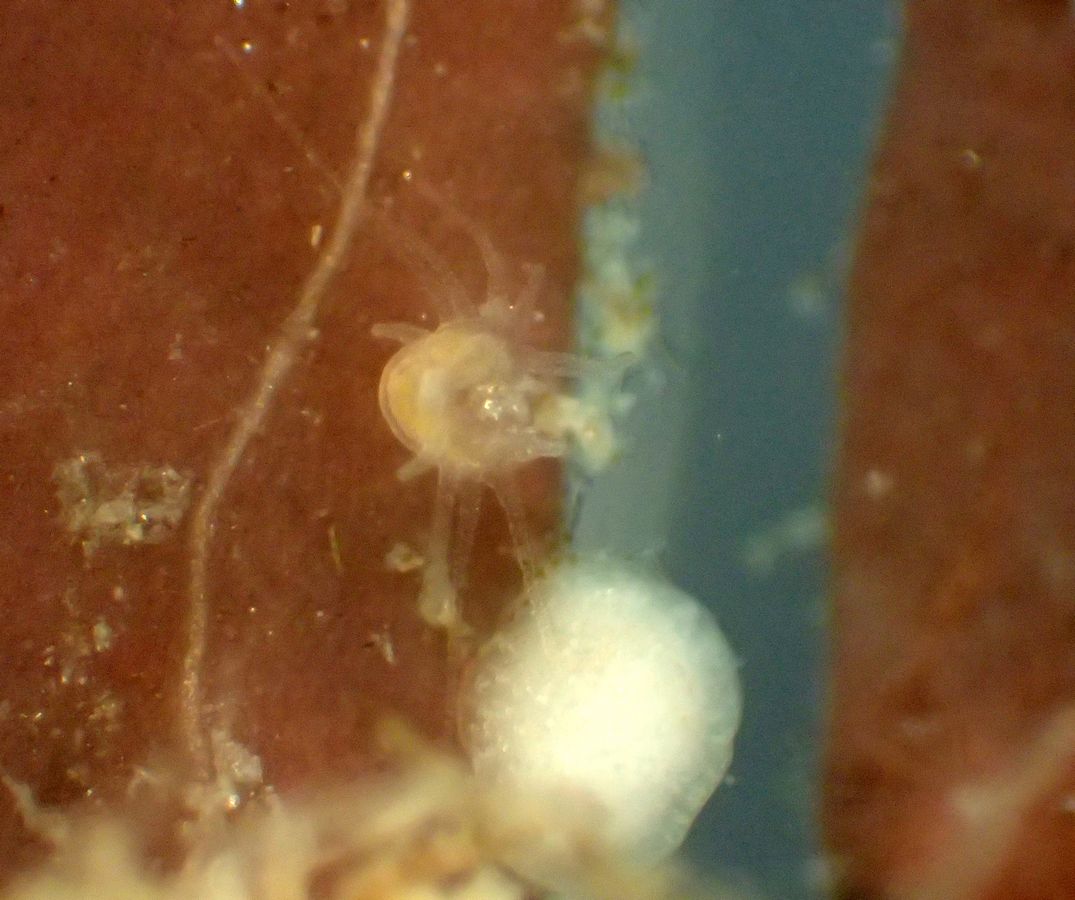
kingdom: Animalia
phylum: Cnidaria
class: Scyphozoa
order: Semaeostomeae
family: Ulmaridae
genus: Aurelia
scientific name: Aurelia aurita
